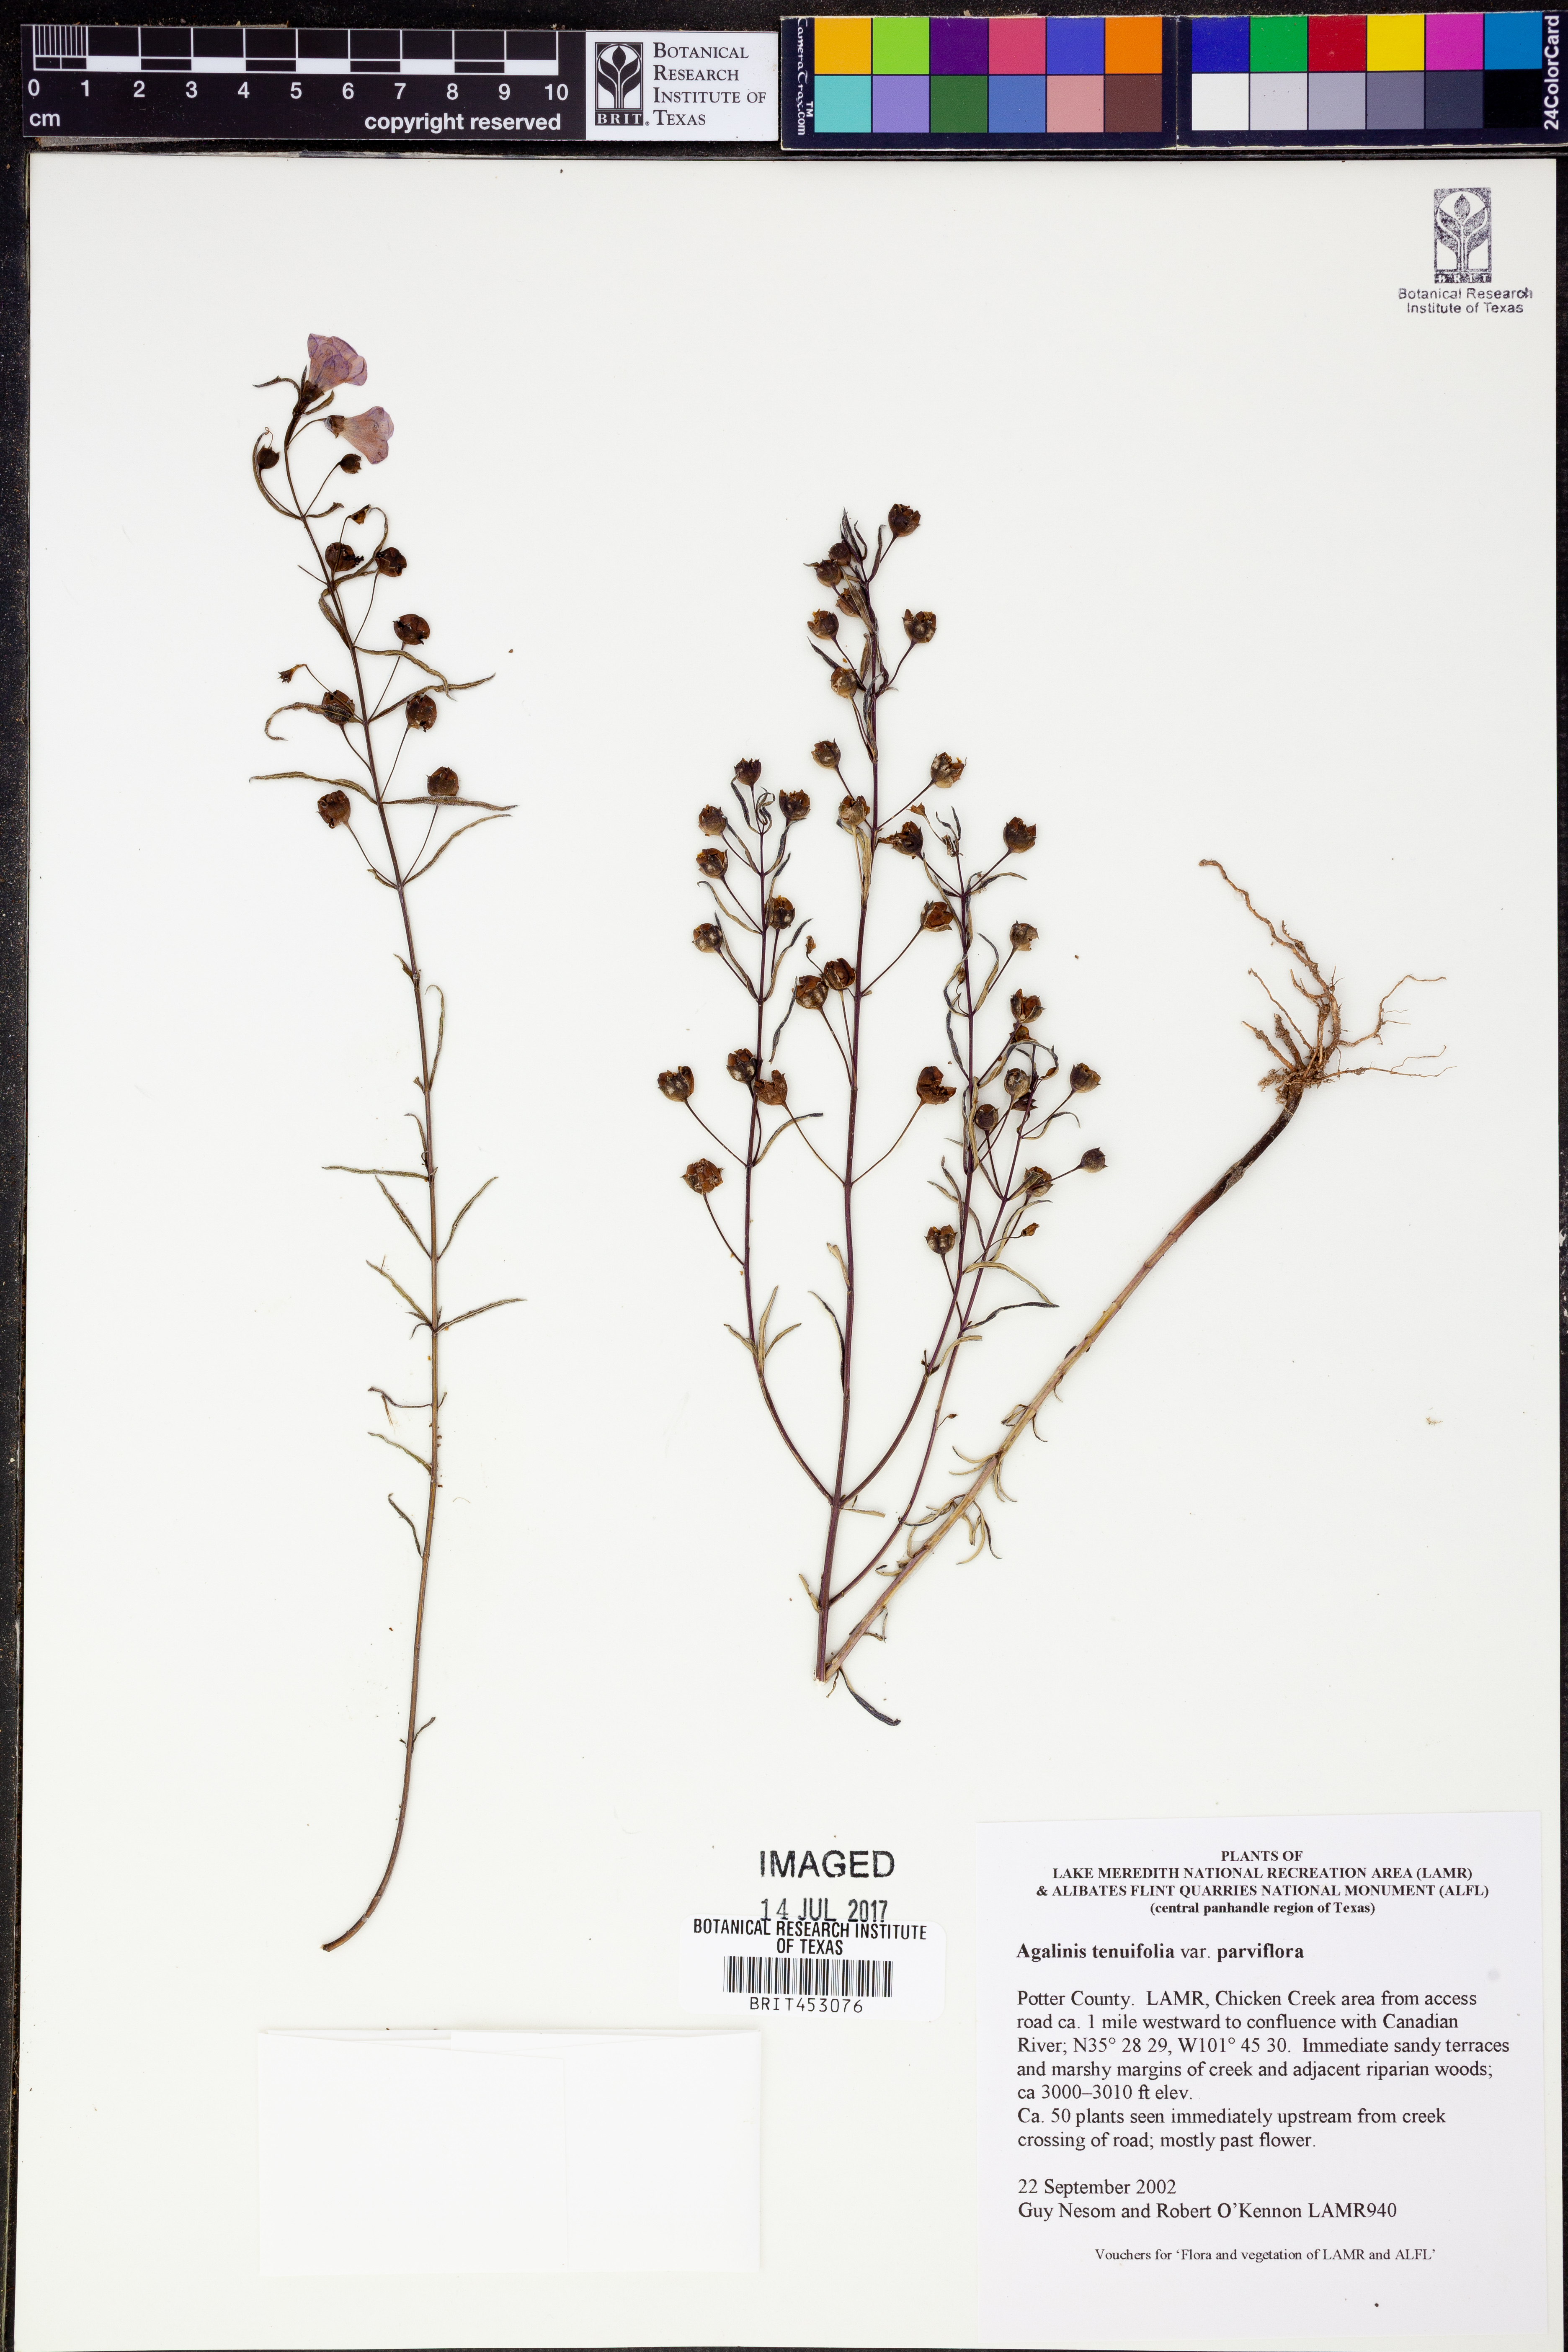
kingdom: Plantae
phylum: Tracheophyta
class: Magnoliopsida
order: Lamiales
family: Orobanchaceae
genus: Agalinis
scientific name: Agalinis tenuifolia
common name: Slender agalinis
